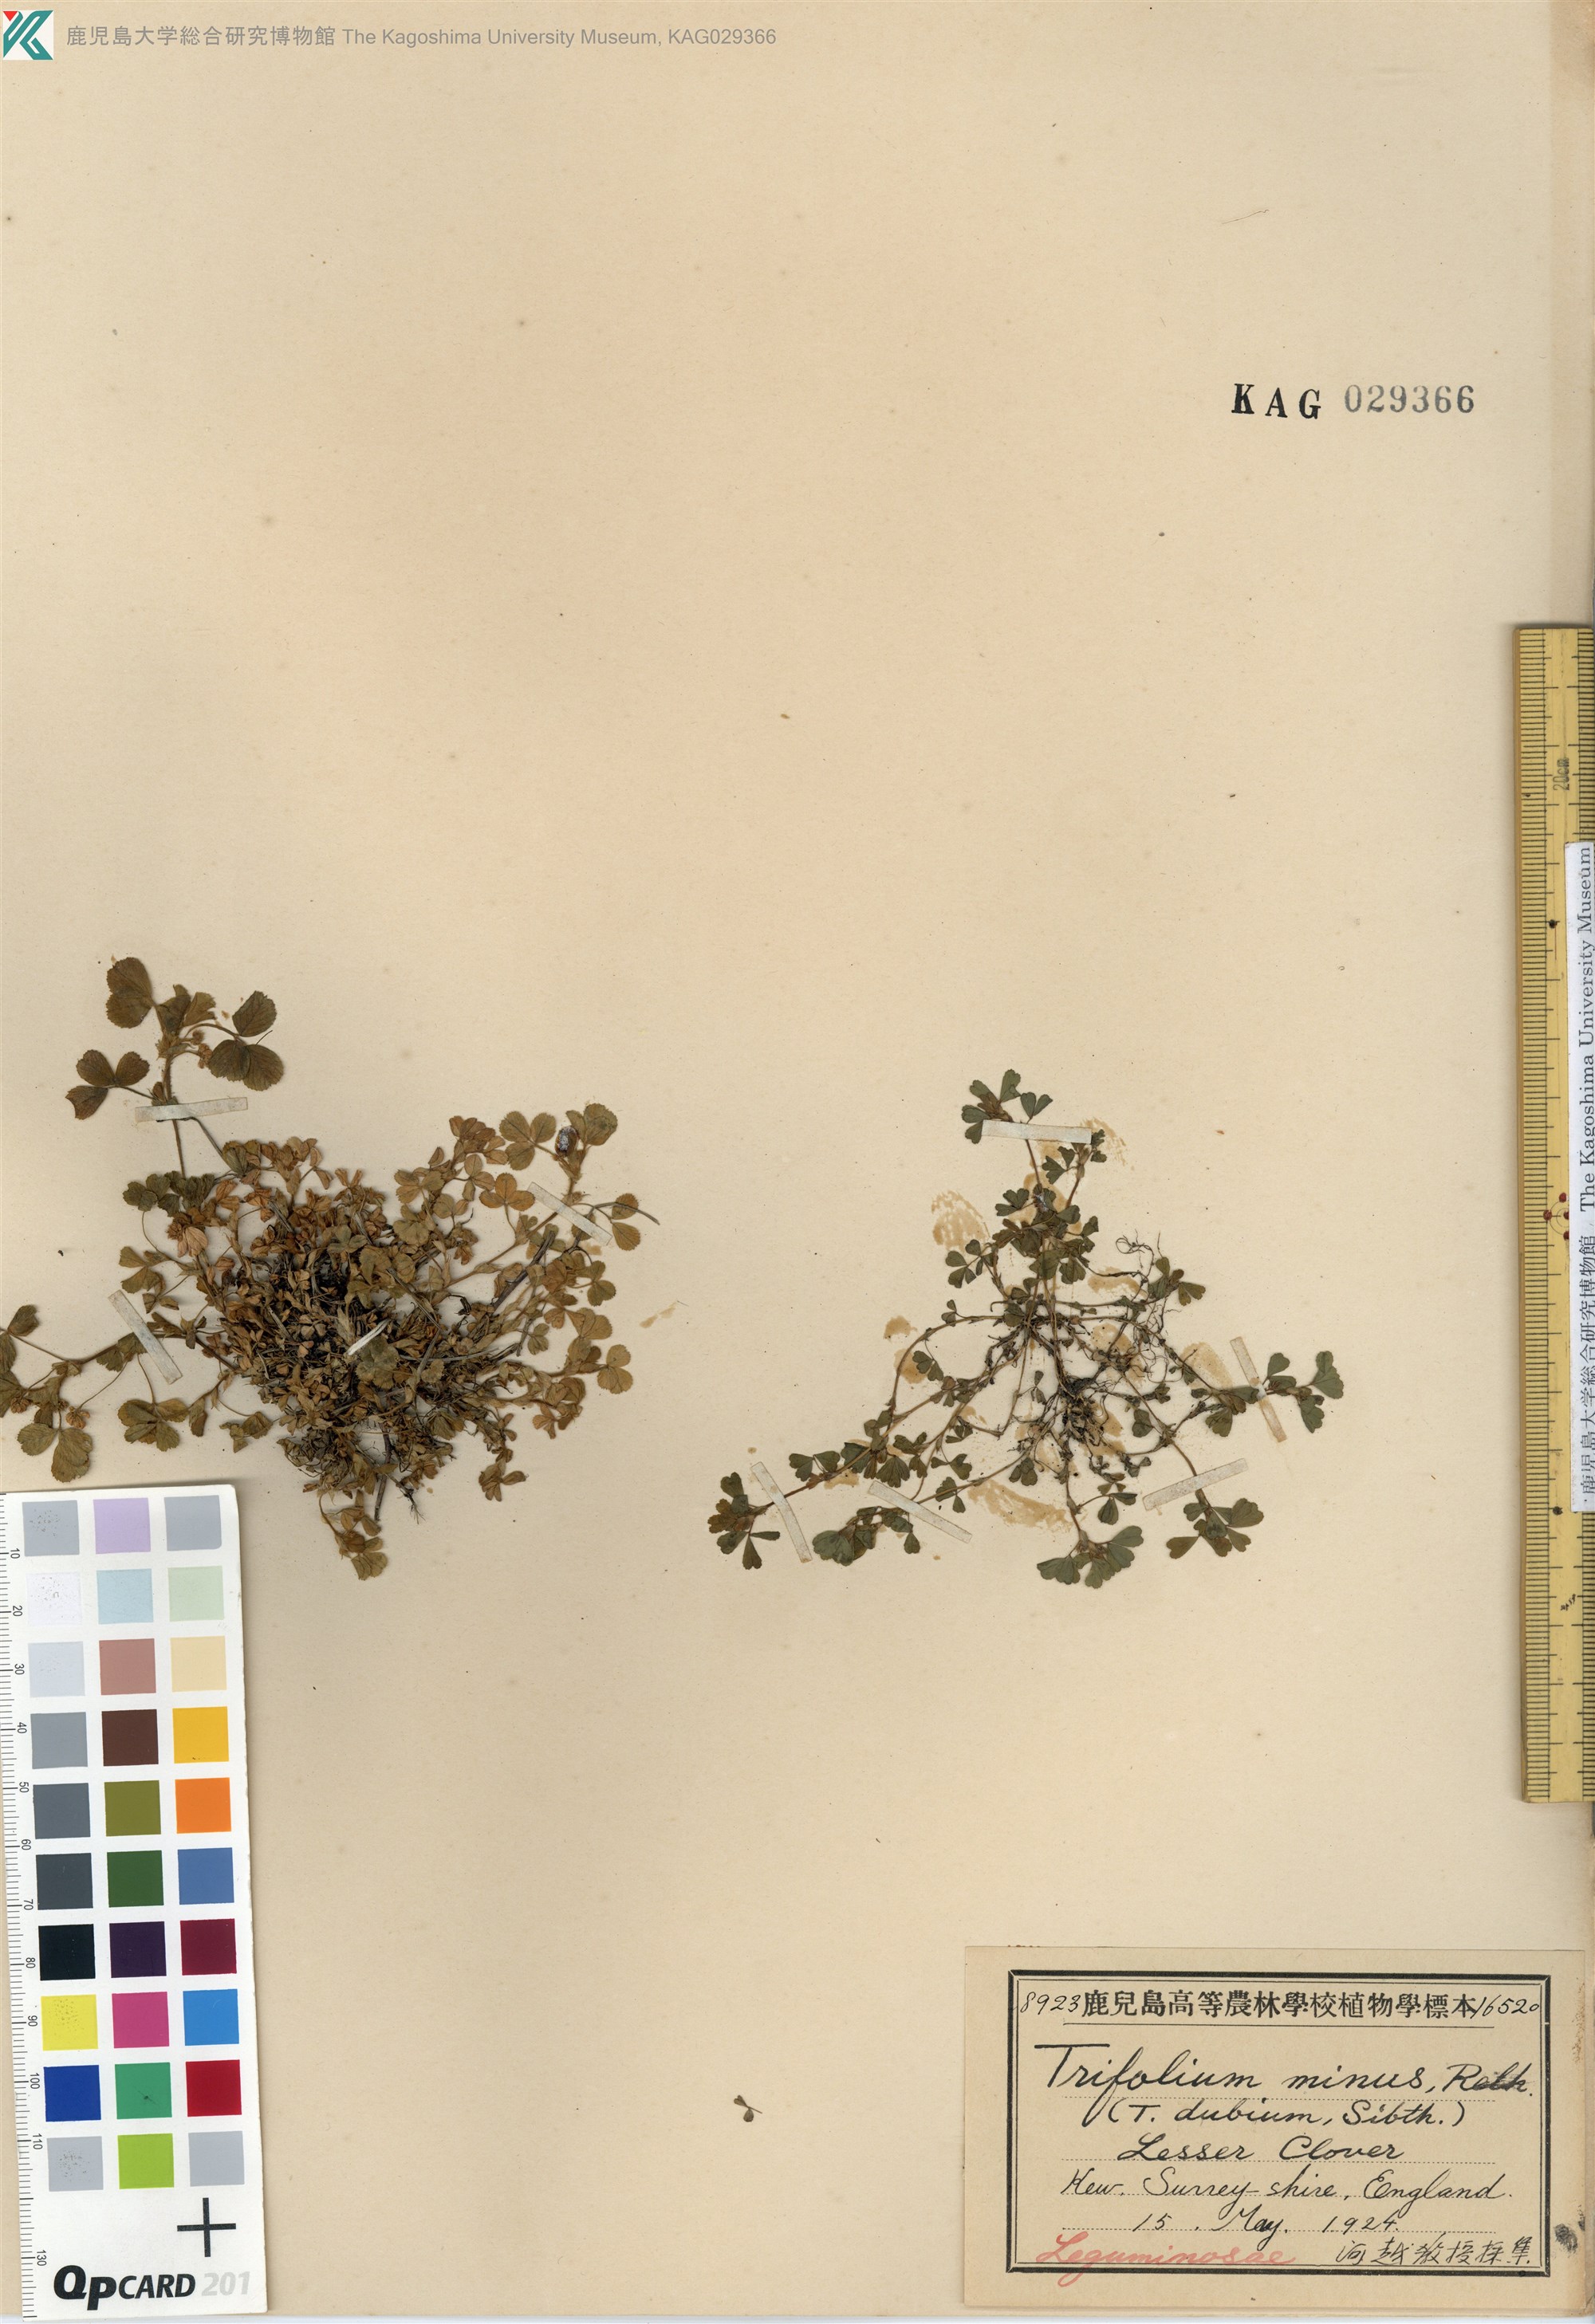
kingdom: Plantae
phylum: Tracheophyta
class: Magnoliopsida
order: Fabales
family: Fabaceae
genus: Trifolium
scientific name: Trifolium dubium
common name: Suckling clover
